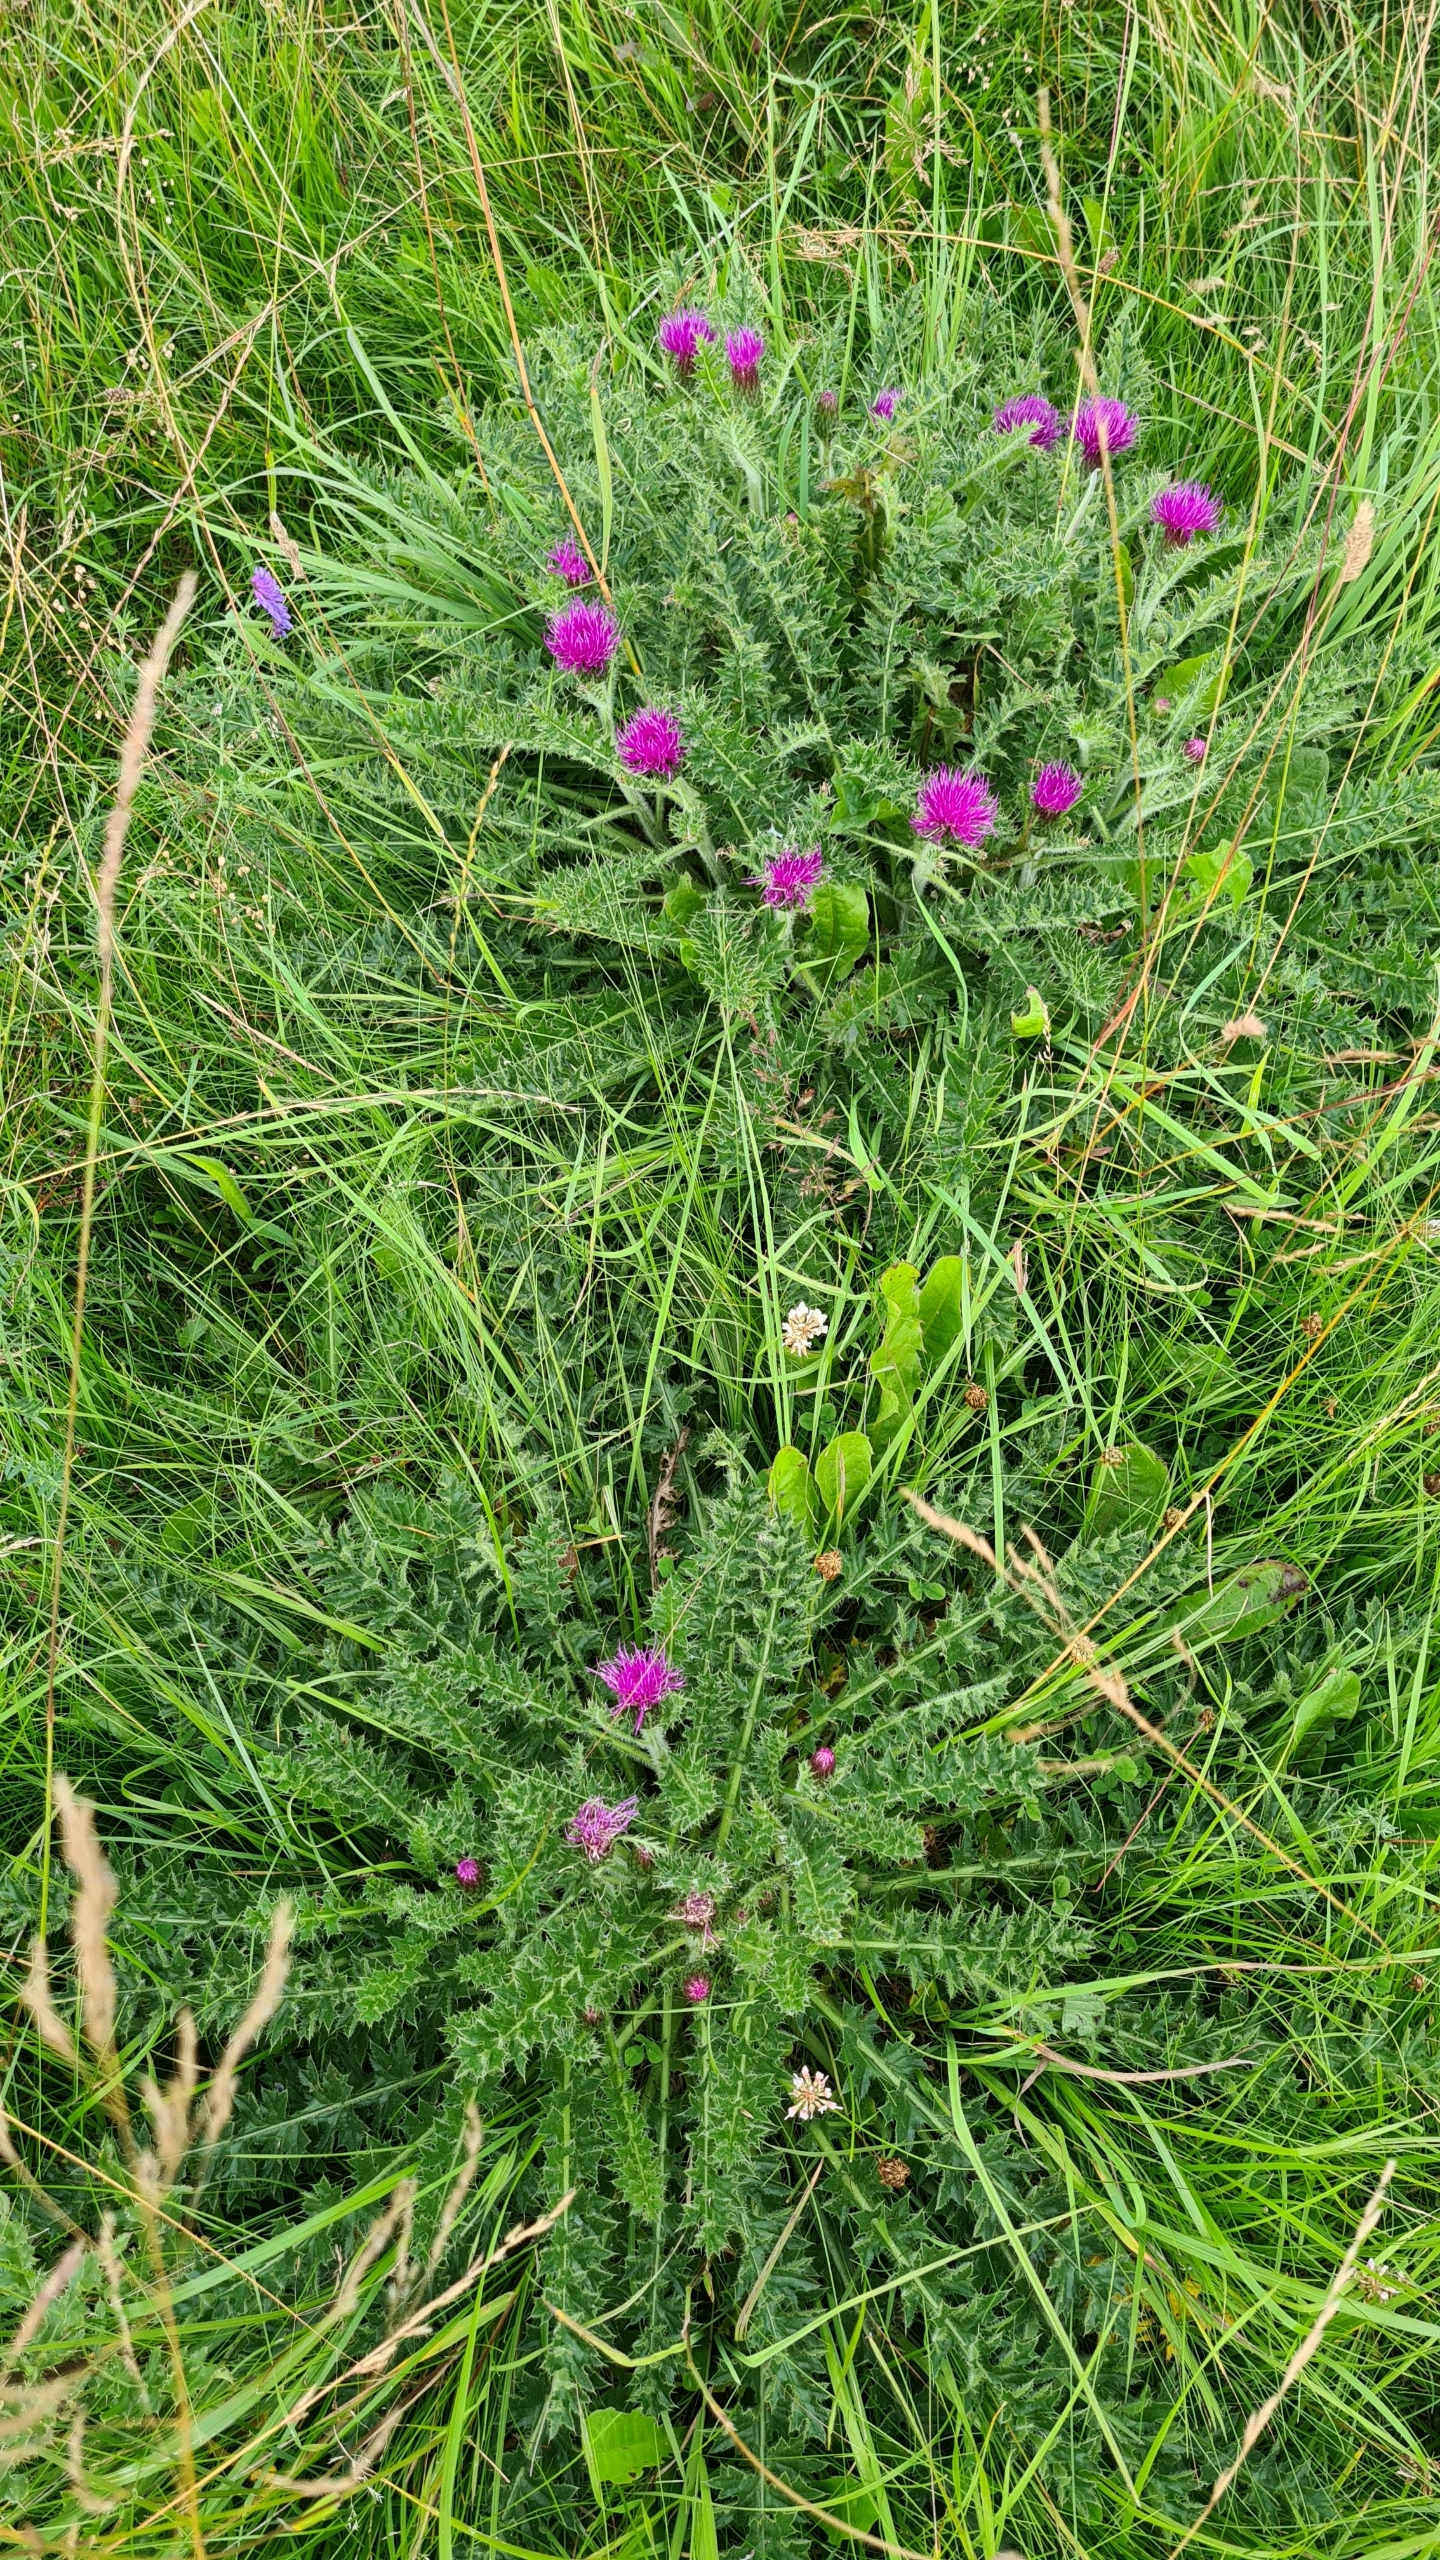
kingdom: Plantae
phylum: Tracheophyta
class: Magnoliopsida
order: Asterales
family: Asteraceae
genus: Cirsium
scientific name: Cirsium acaule
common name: Lav tidsel
